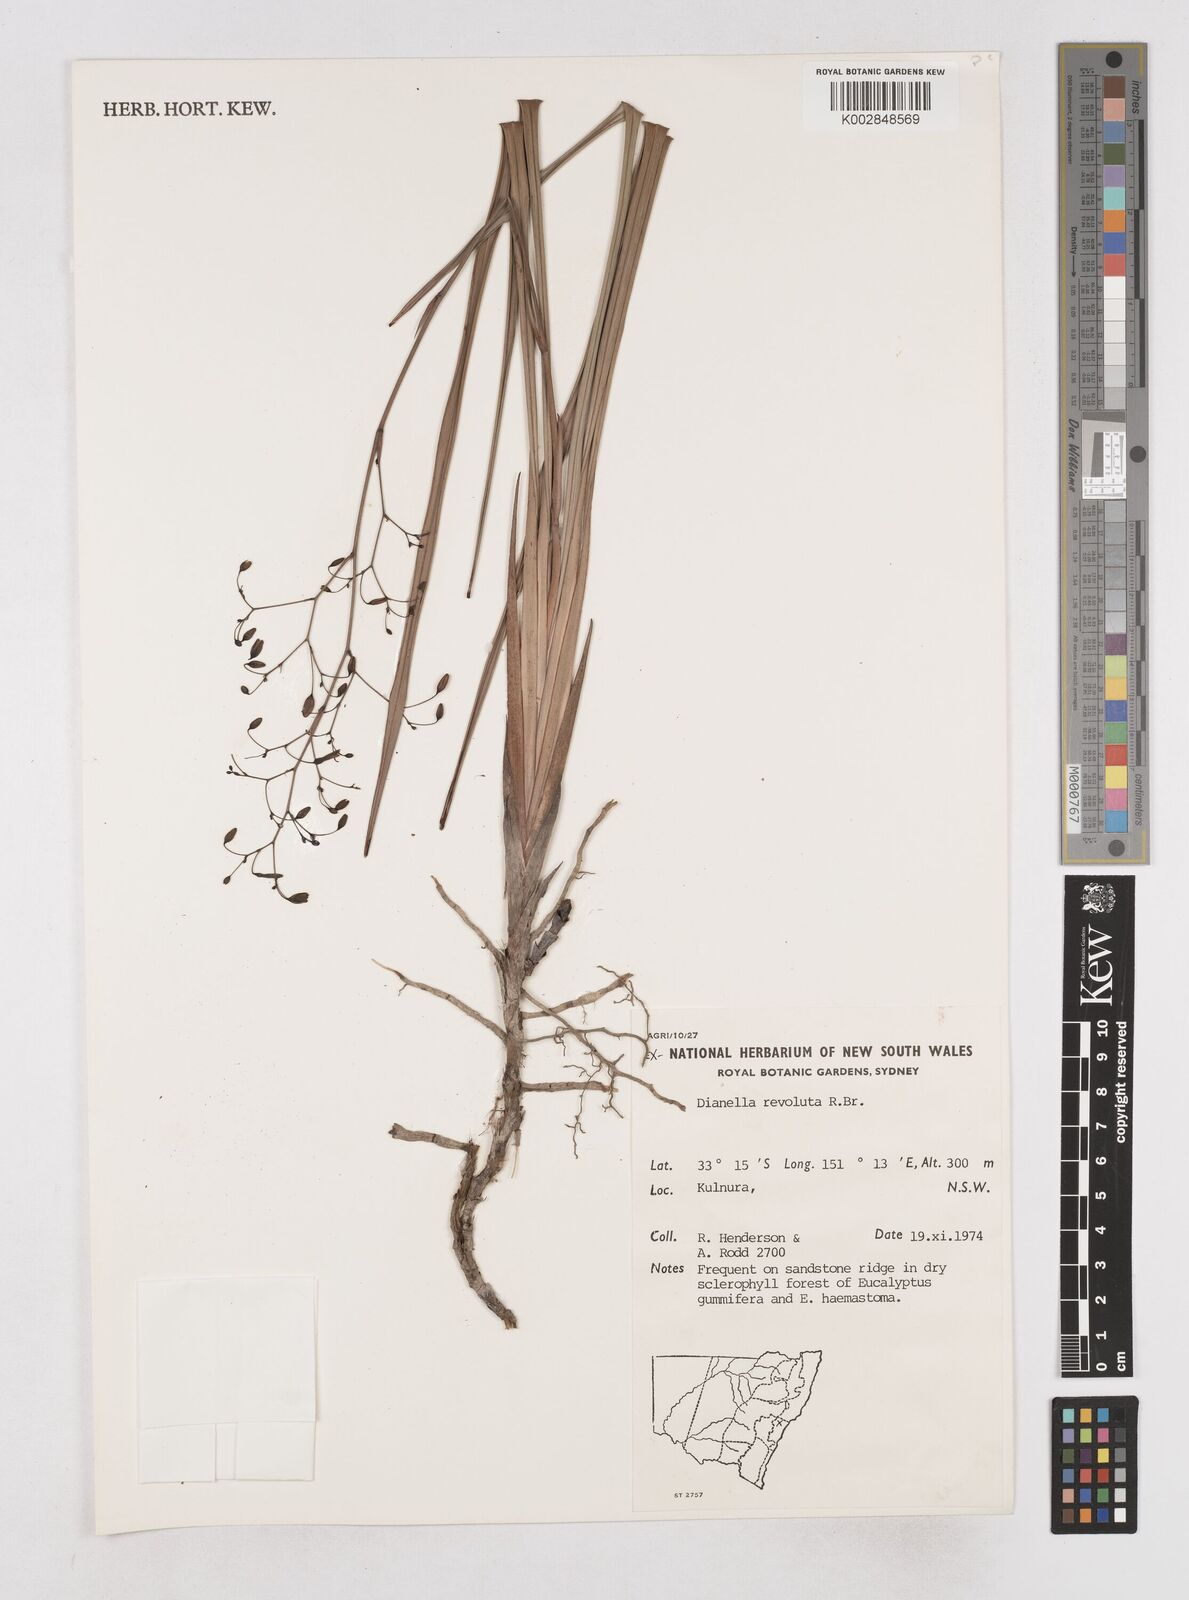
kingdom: Plantae
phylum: Tracheophyta
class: Liliopsida
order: Asparagales
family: Asphodelaceae
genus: Dianella
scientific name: Dianella revoluta
